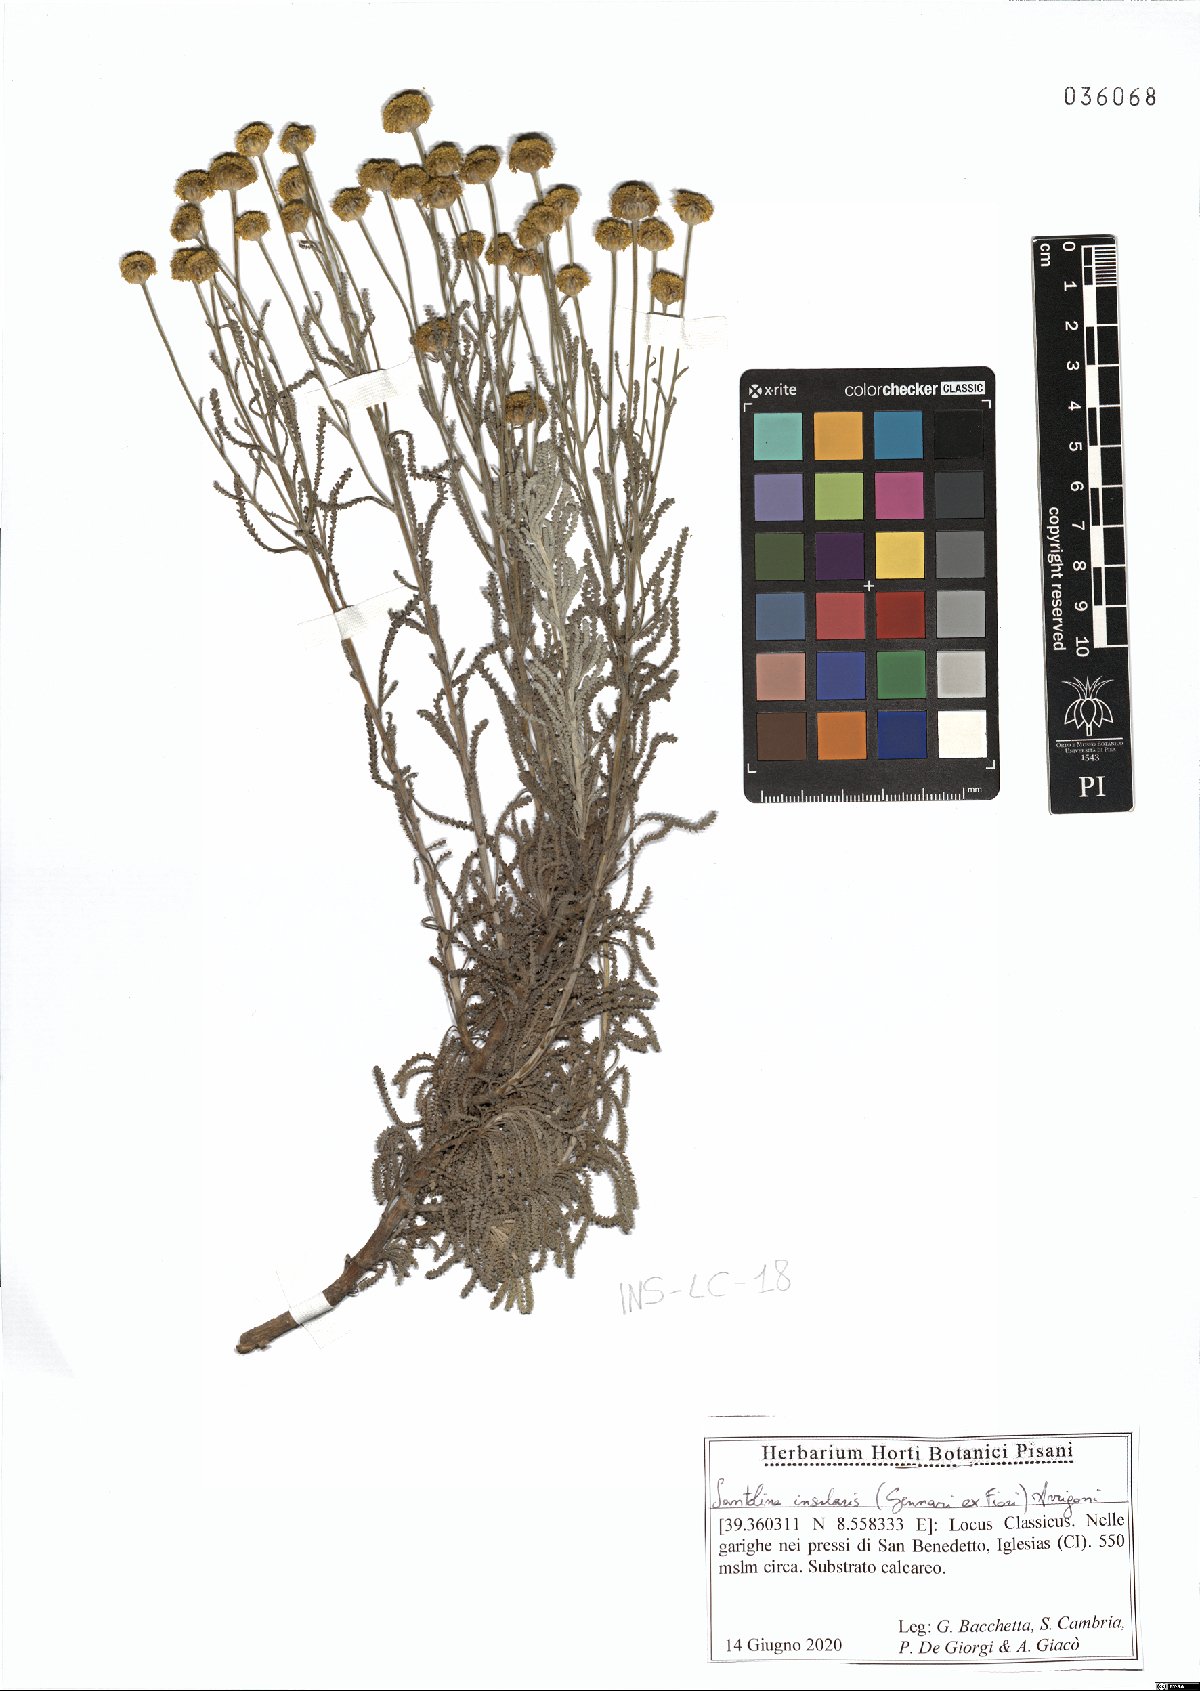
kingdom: Plantae
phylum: Tracheophyta
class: Magnoliopsida
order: Asterales
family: Asteraceae
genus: Santolina
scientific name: Santolina insularis
